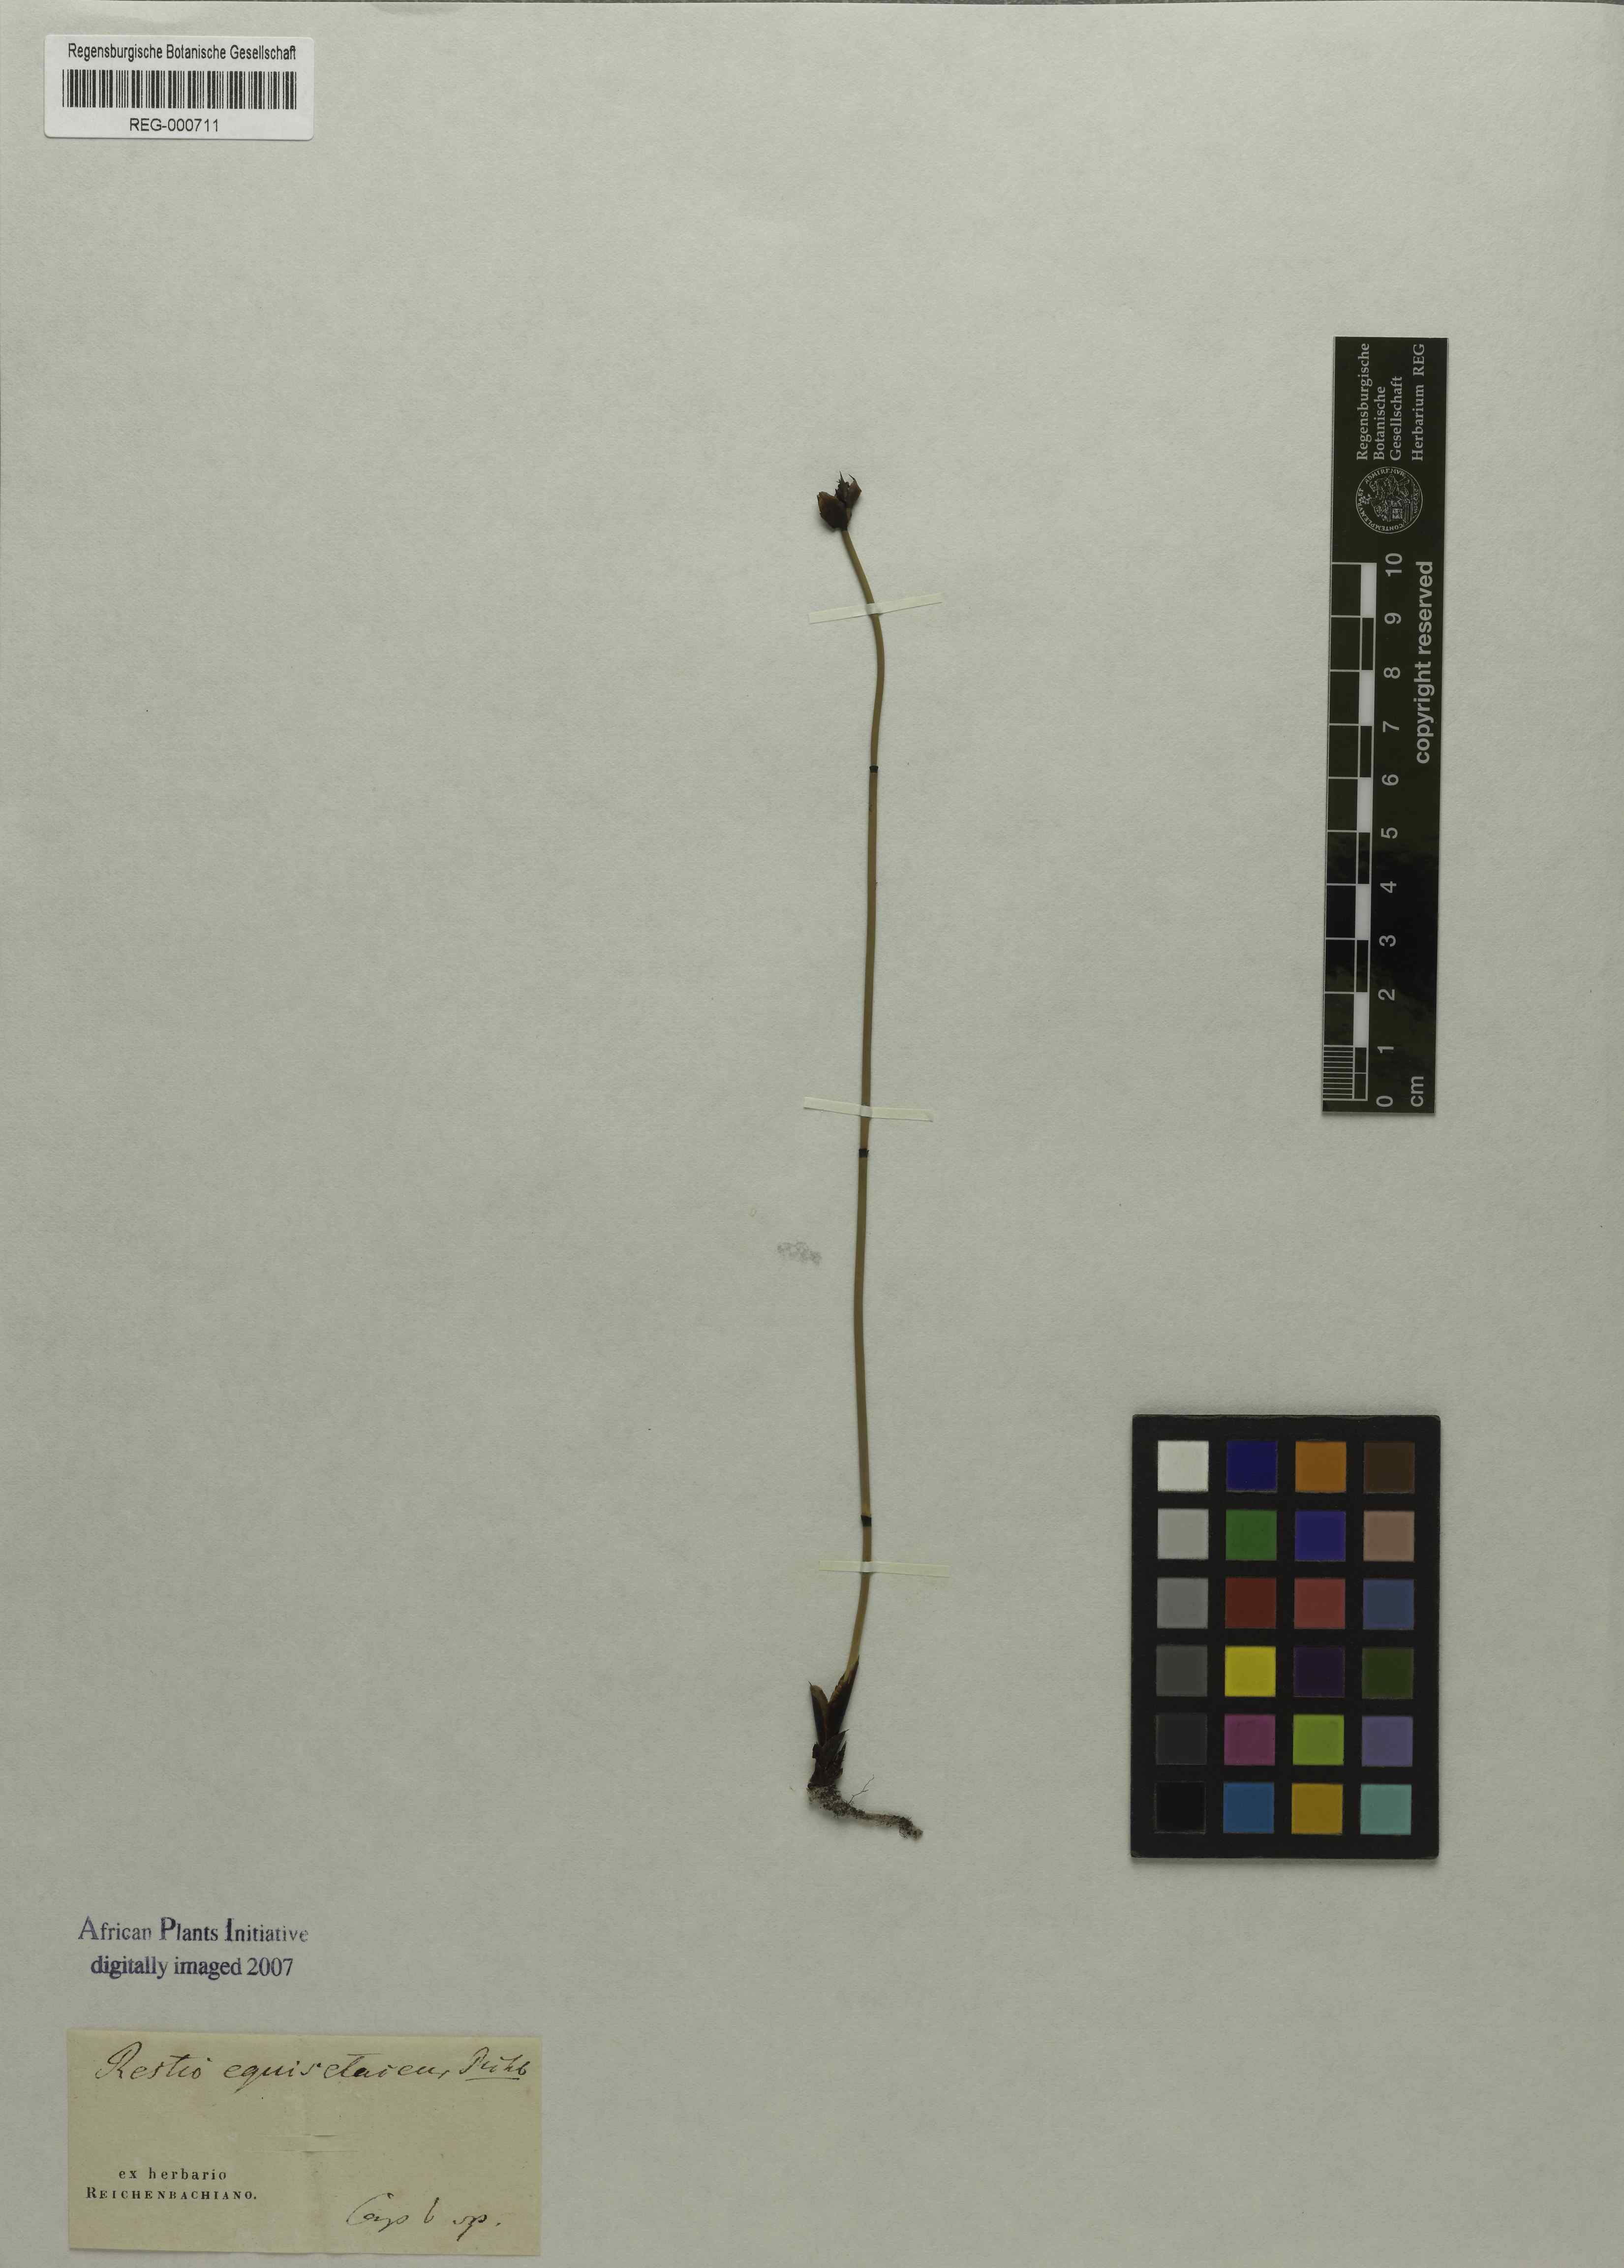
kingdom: Plantae
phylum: Tracheophyta
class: Liliopsida
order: Poales
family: Restionaceae
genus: Elegia
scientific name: Elegia macrocarpa
